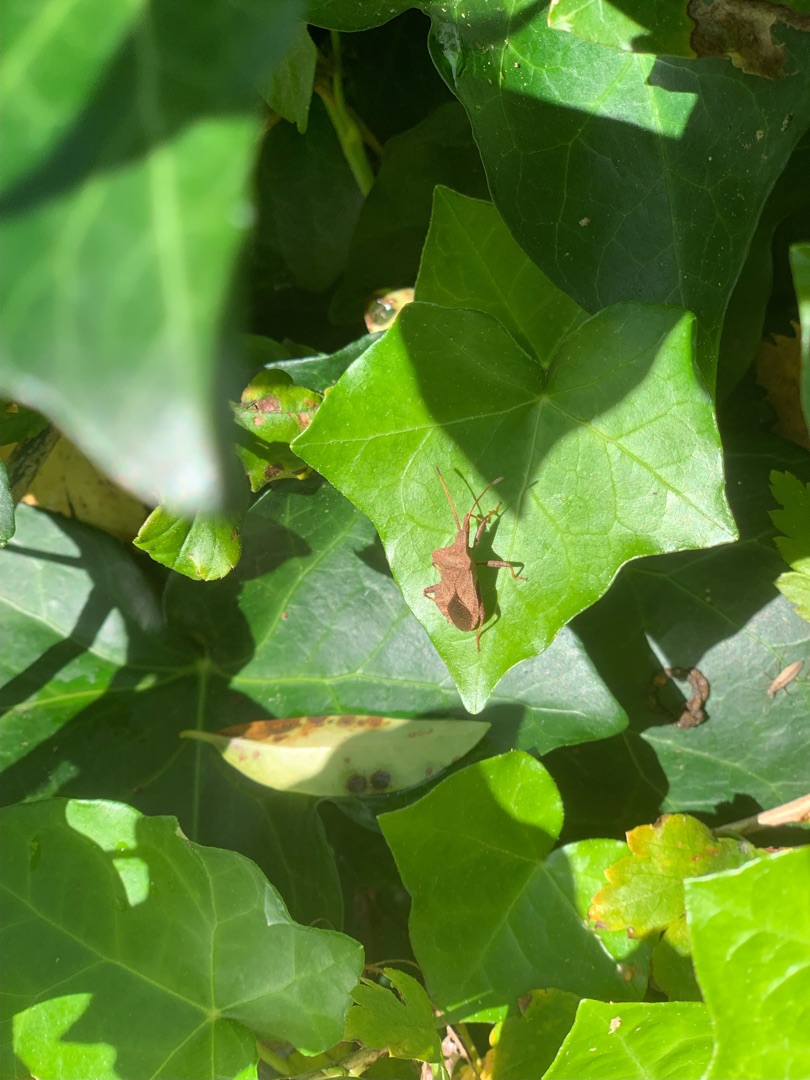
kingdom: Animalia
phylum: Arthropoda
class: Insecta
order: Hemiptera
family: Coreidae
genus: Coreus
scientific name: Coreus marginatus
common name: Skræppetæge
